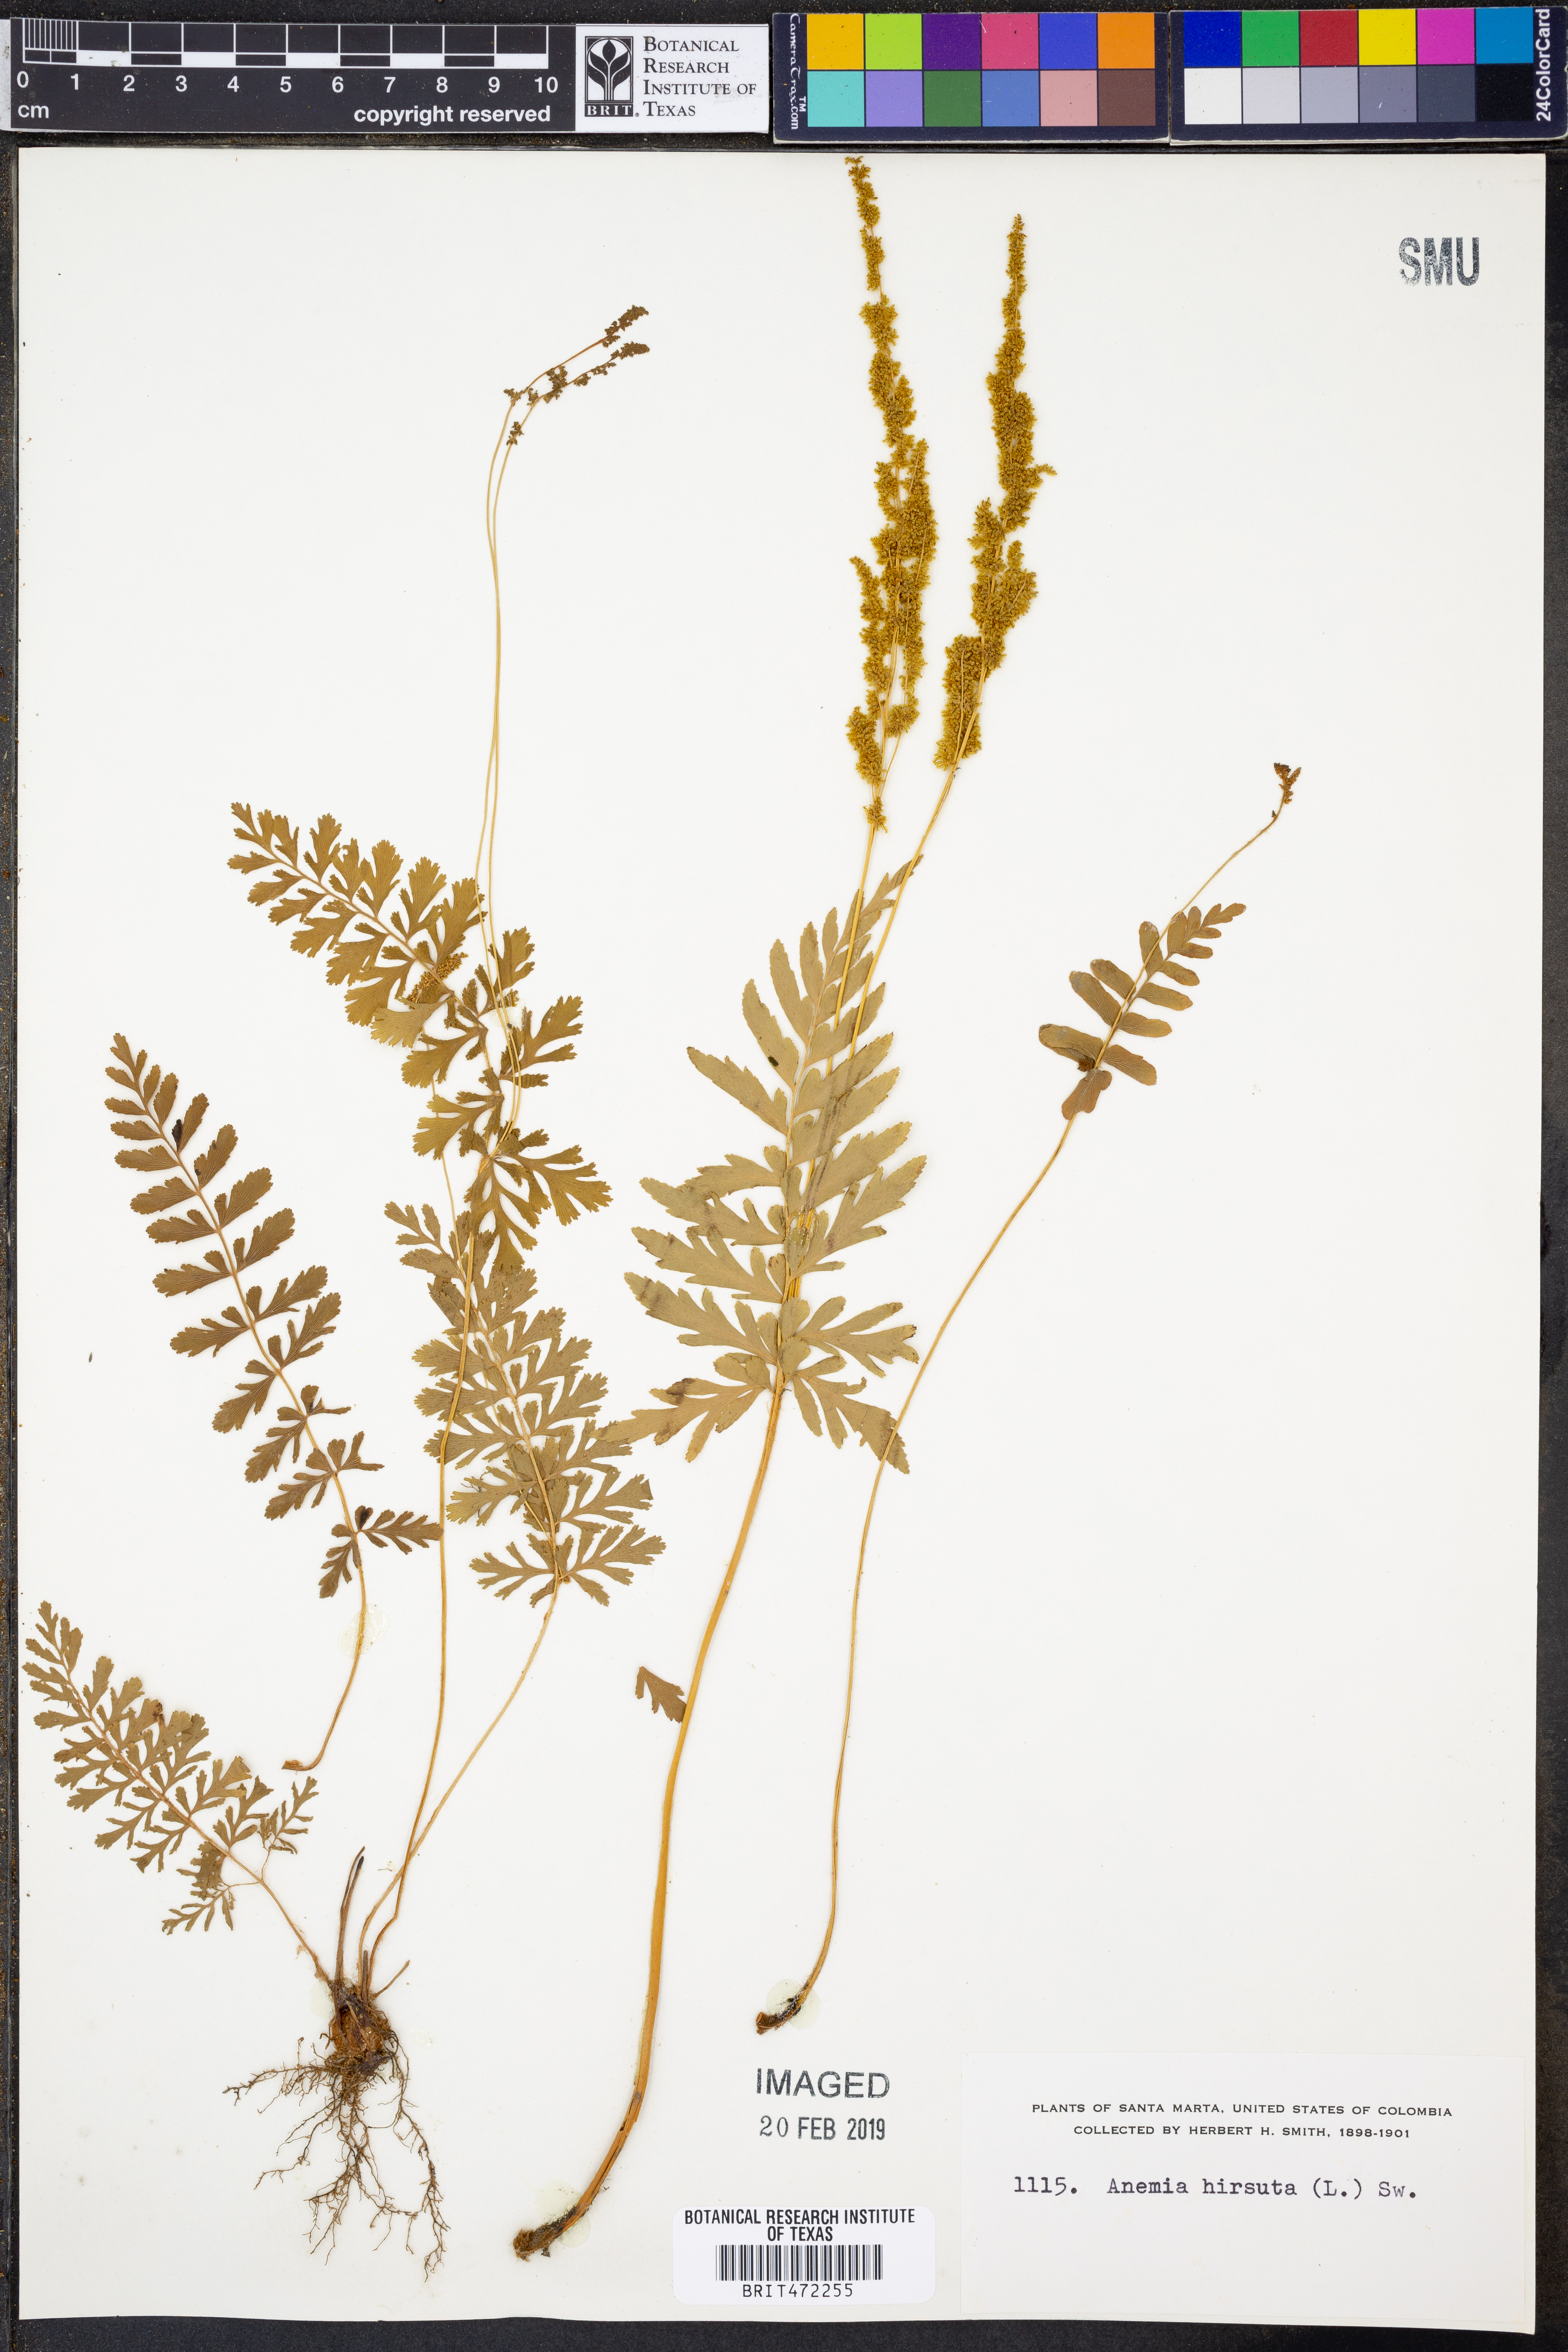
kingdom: Plantae
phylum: Tracheophyta
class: Polypodiopsida
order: Schizaeales
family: Anemiaceae
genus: Anemia
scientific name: Anemia hirsuta
